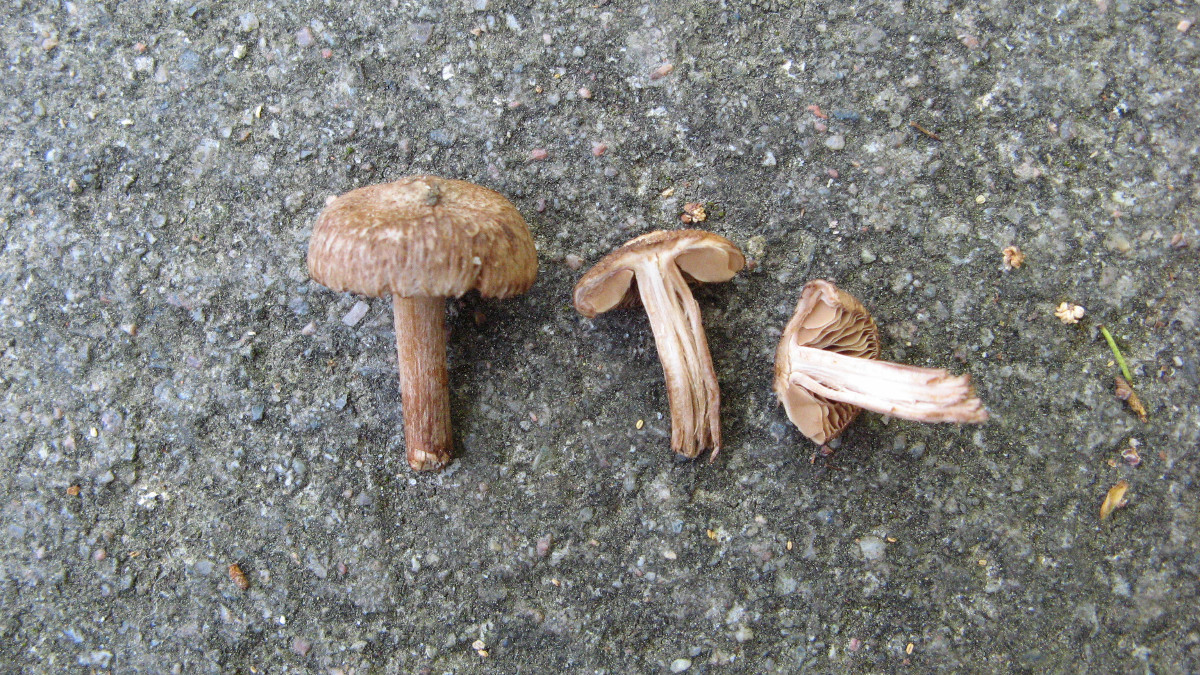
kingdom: Fungi
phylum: Basidiomycota
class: Agaricomycetes
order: Agaricales
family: Inocybaceae
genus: Inocybe
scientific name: Inocybe
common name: trævlhat
